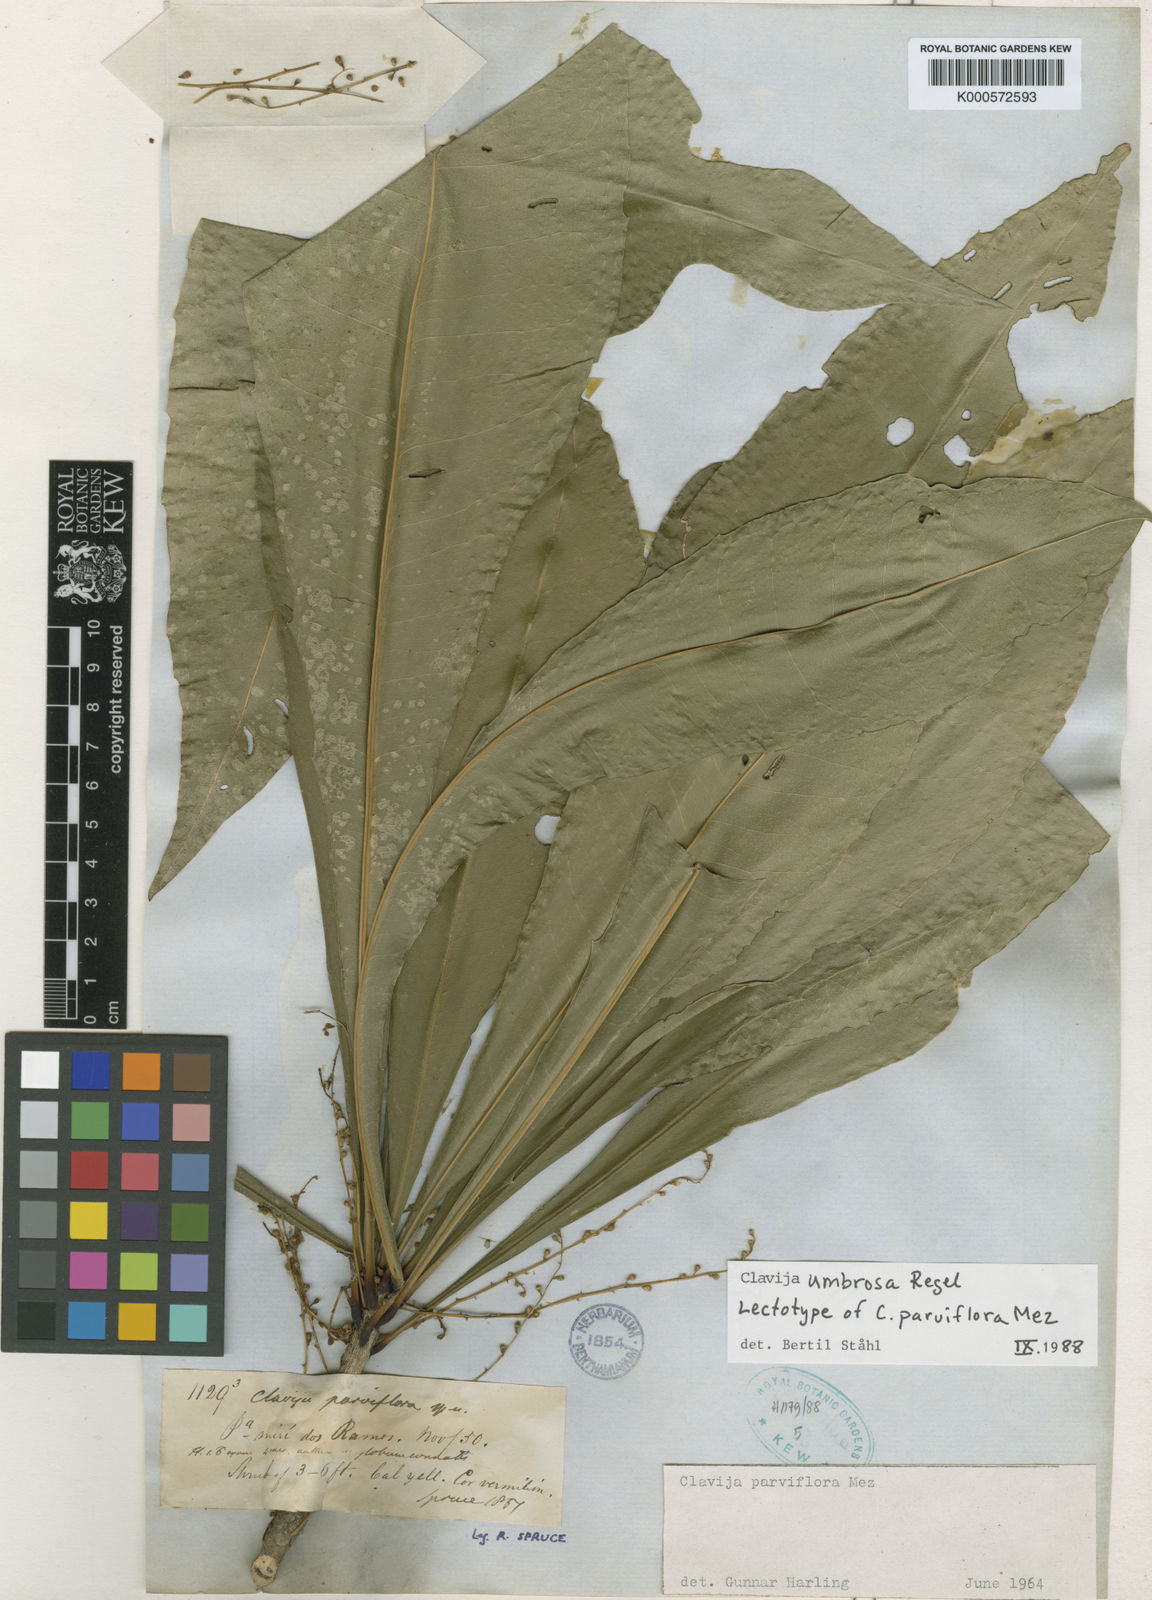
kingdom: Plantae
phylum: Tracheophyta
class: Magnoliopsida
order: Ericales
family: Primulaceae
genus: Clavija
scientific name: Clavija umbrosa
